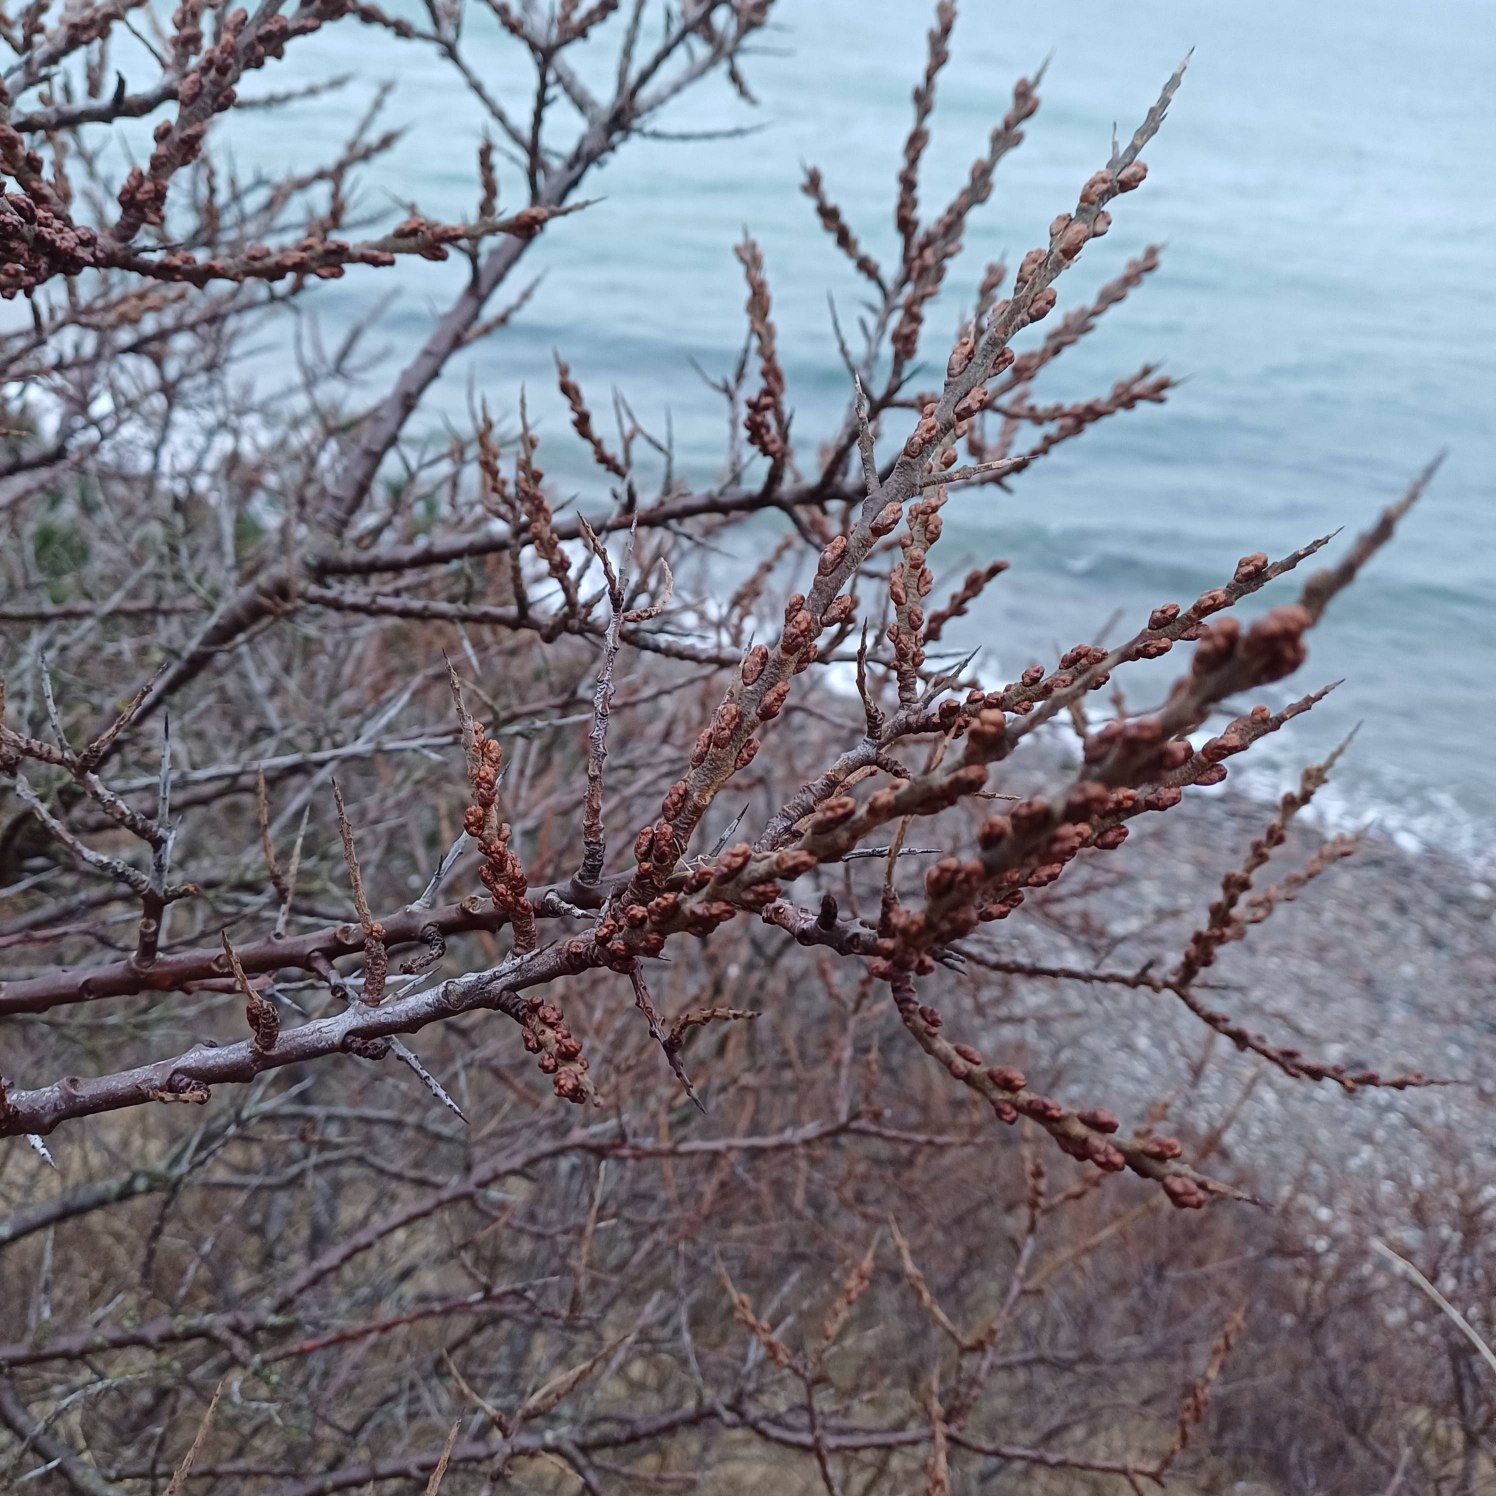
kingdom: Plantae
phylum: Tracheophyta
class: Magnoliopsida
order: Rosales
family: Elaeagnaceae
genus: Hippophae
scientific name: Hippophae rhamnoides
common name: Havtorn
